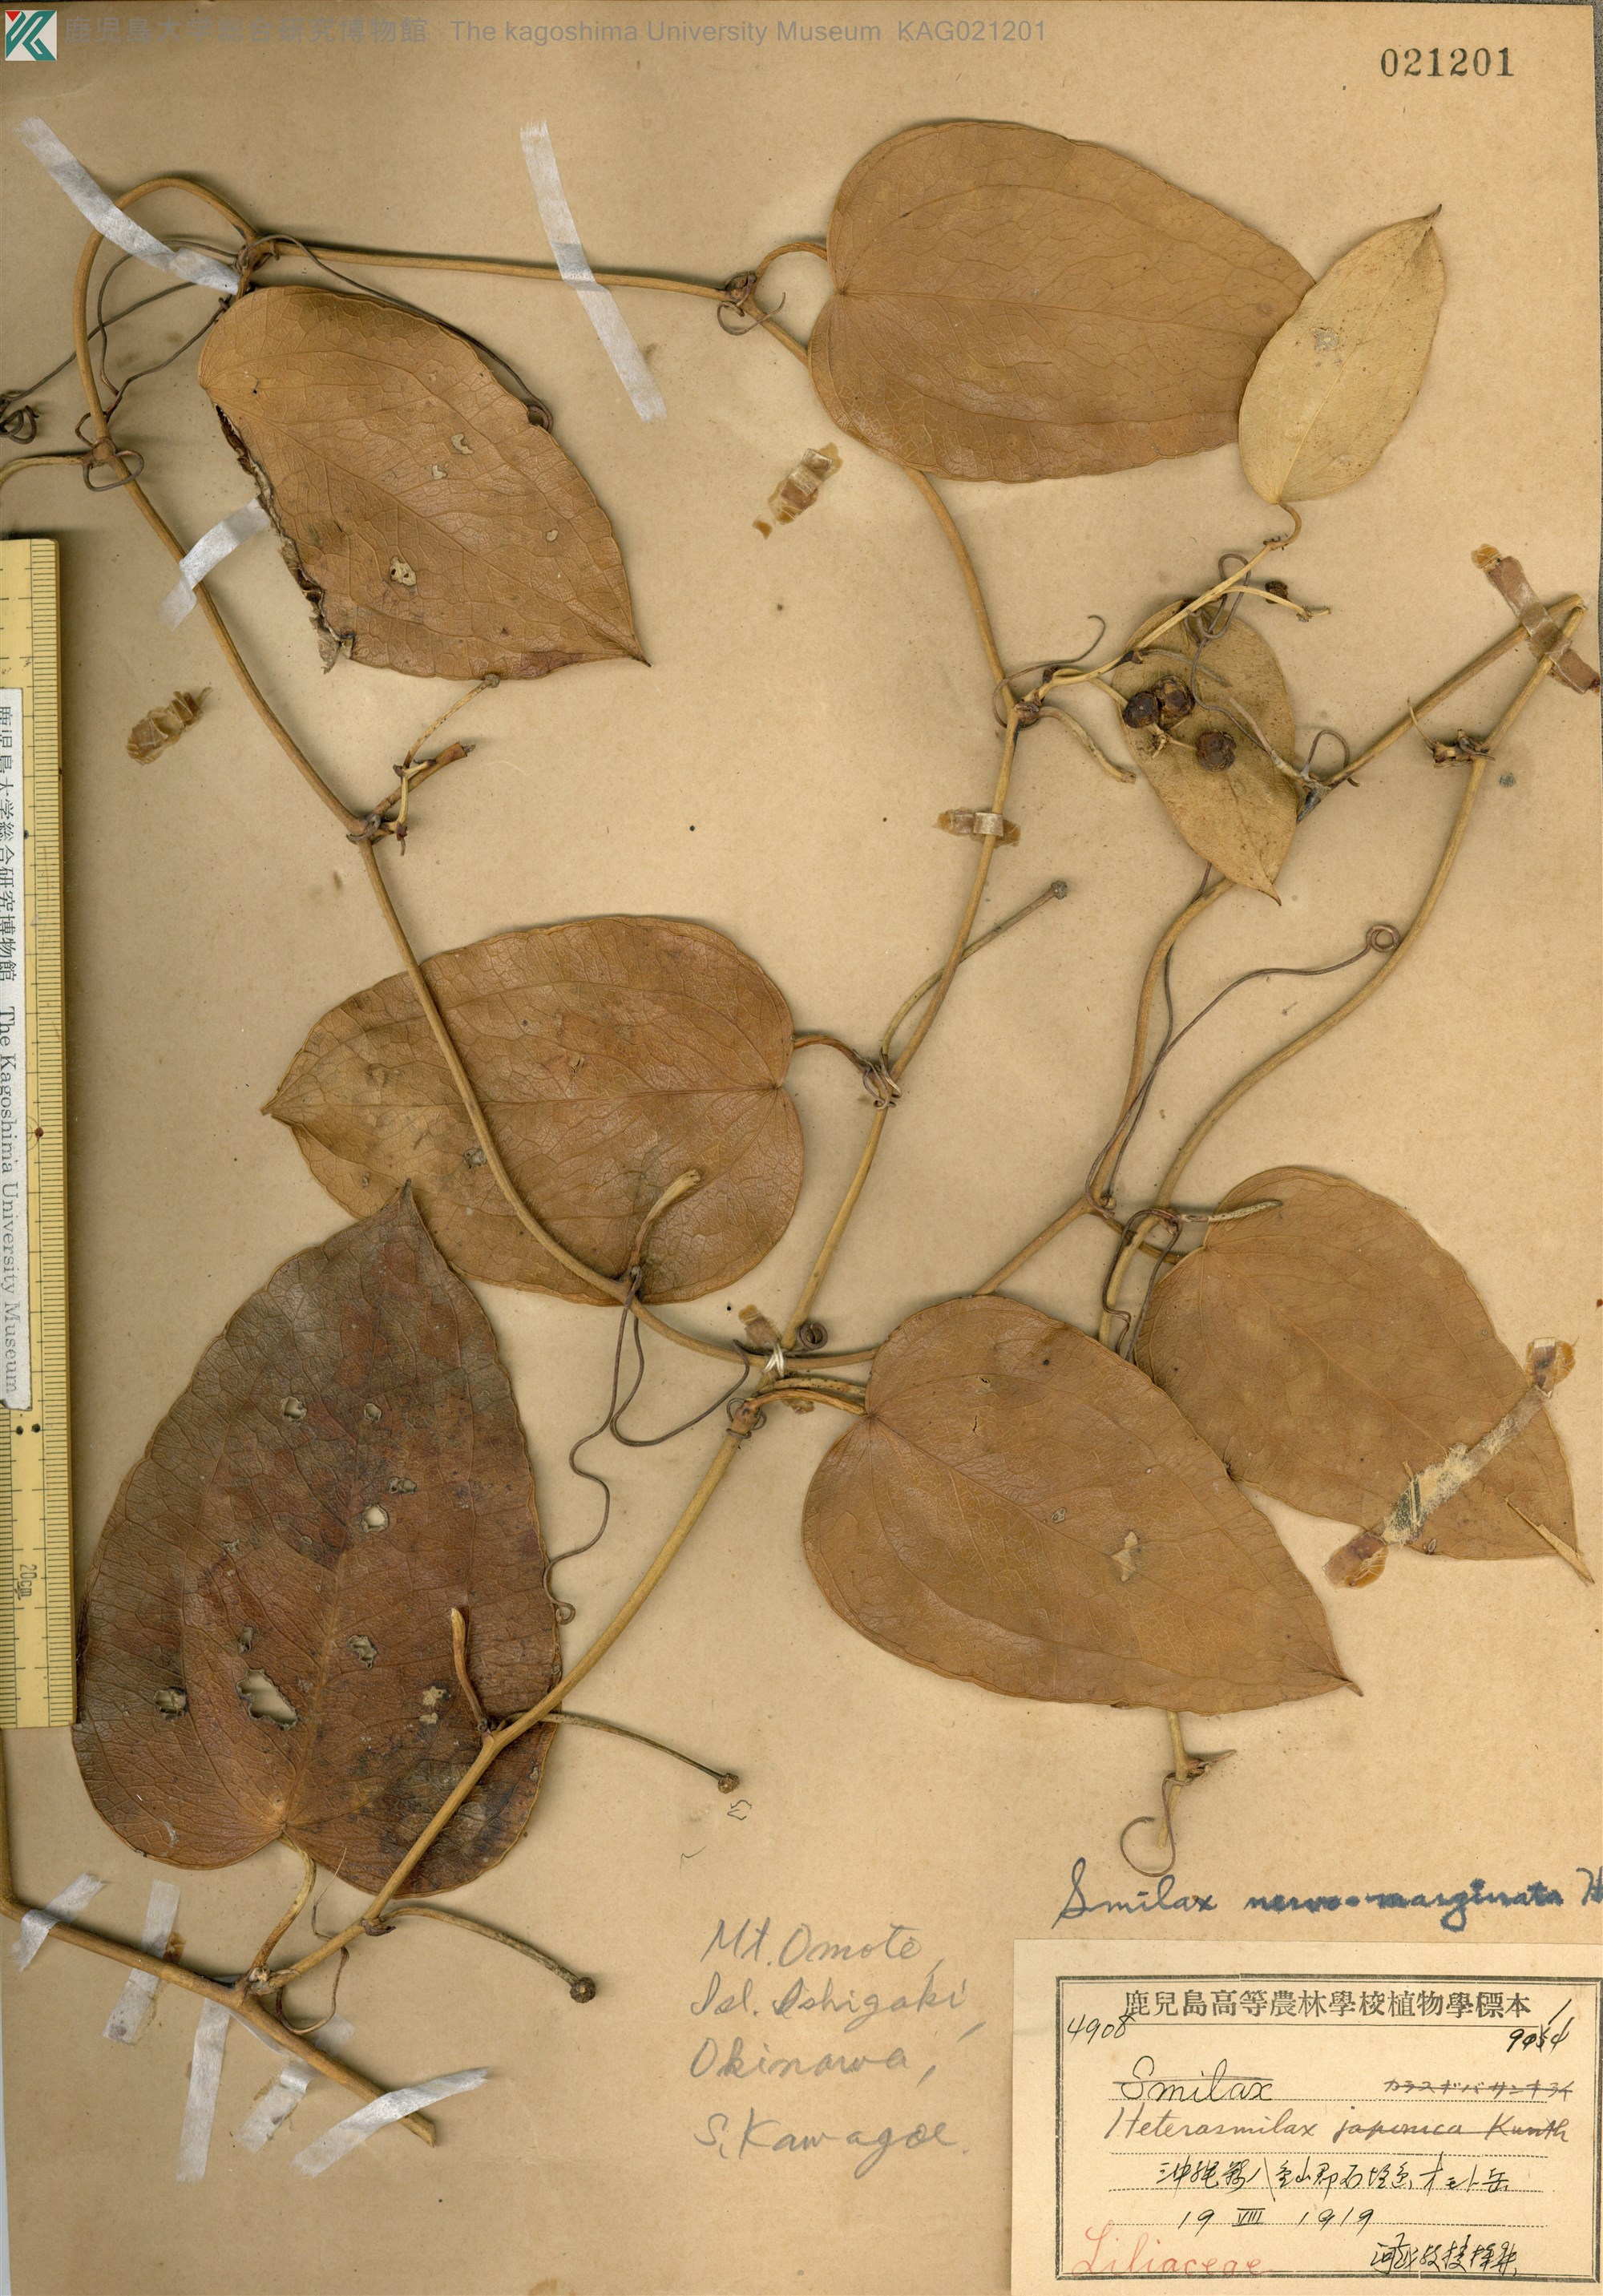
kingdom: Plantae
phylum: Tracheophyta
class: Liliopsida
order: Liliales
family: Smilacaceae
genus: Smilax
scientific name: Smilax nervomarginata
